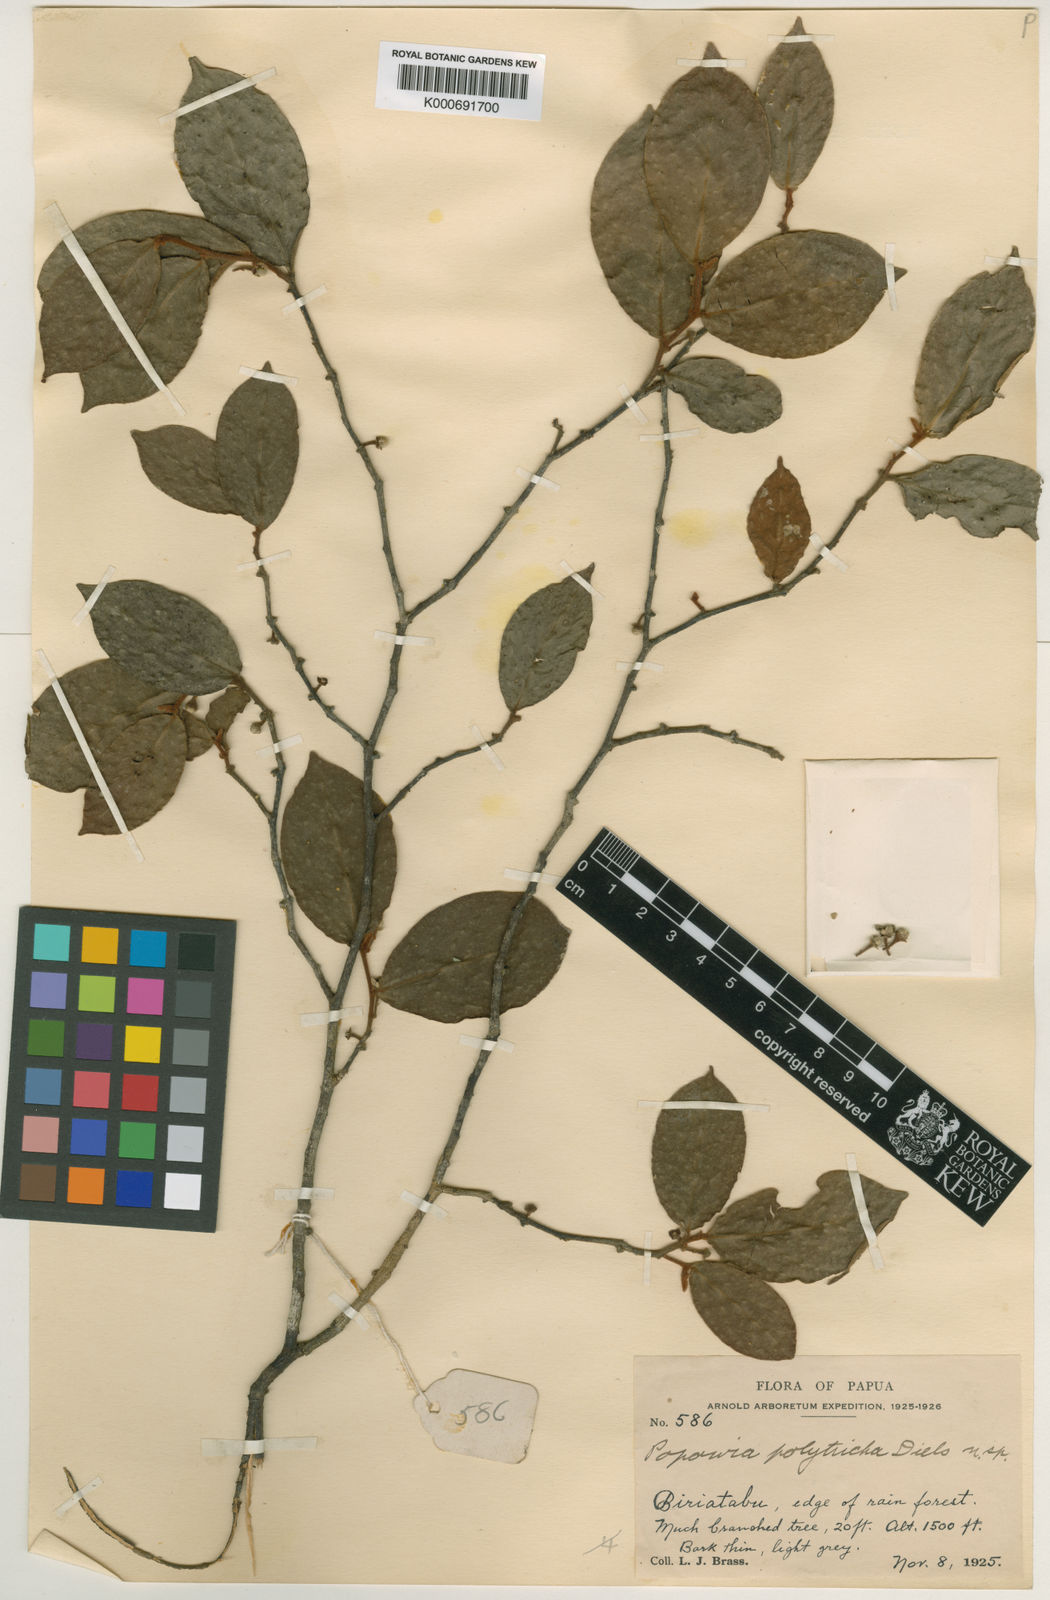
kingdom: Plantae
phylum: Tracheophyta
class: Magnoliopsida
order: Magnoliales
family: Annonaceae
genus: Popowia
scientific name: Popowia polytricha
